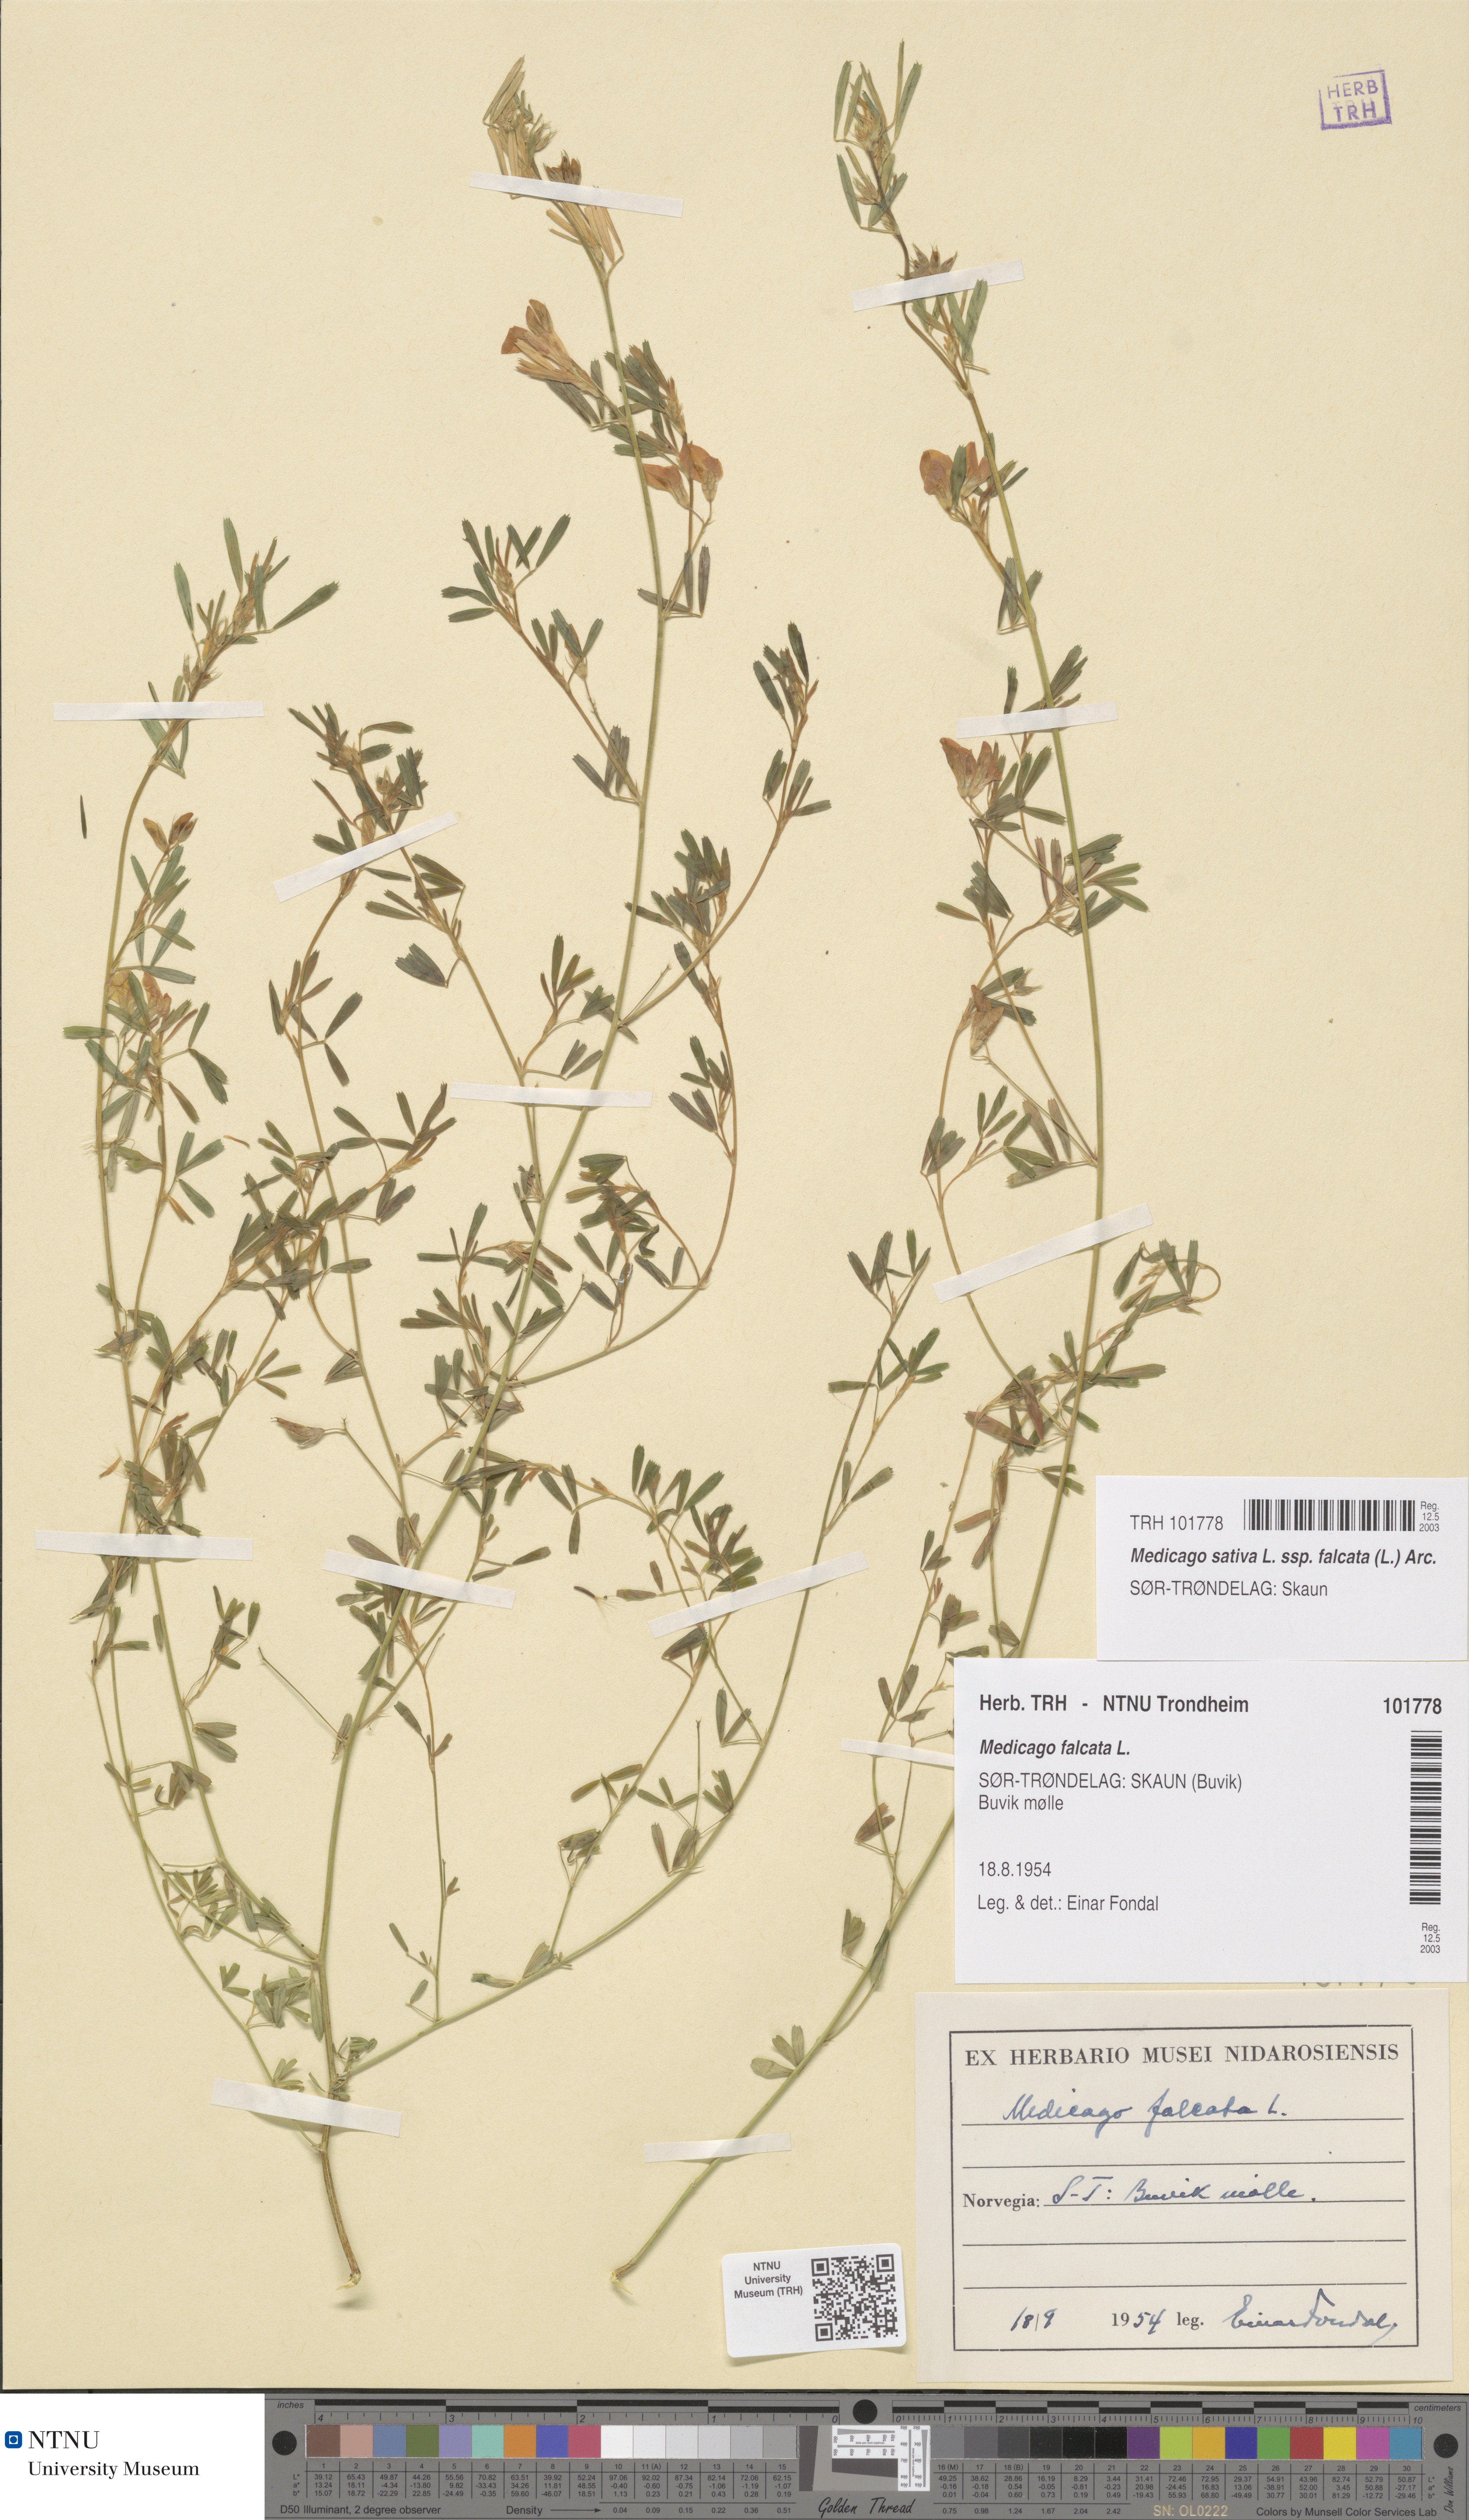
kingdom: Plantae
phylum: Tracheophyta
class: Magnoliopsida
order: Fabales
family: Fabaceae
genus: Medicago
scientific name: Medicago falcata
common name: Sickle medick
